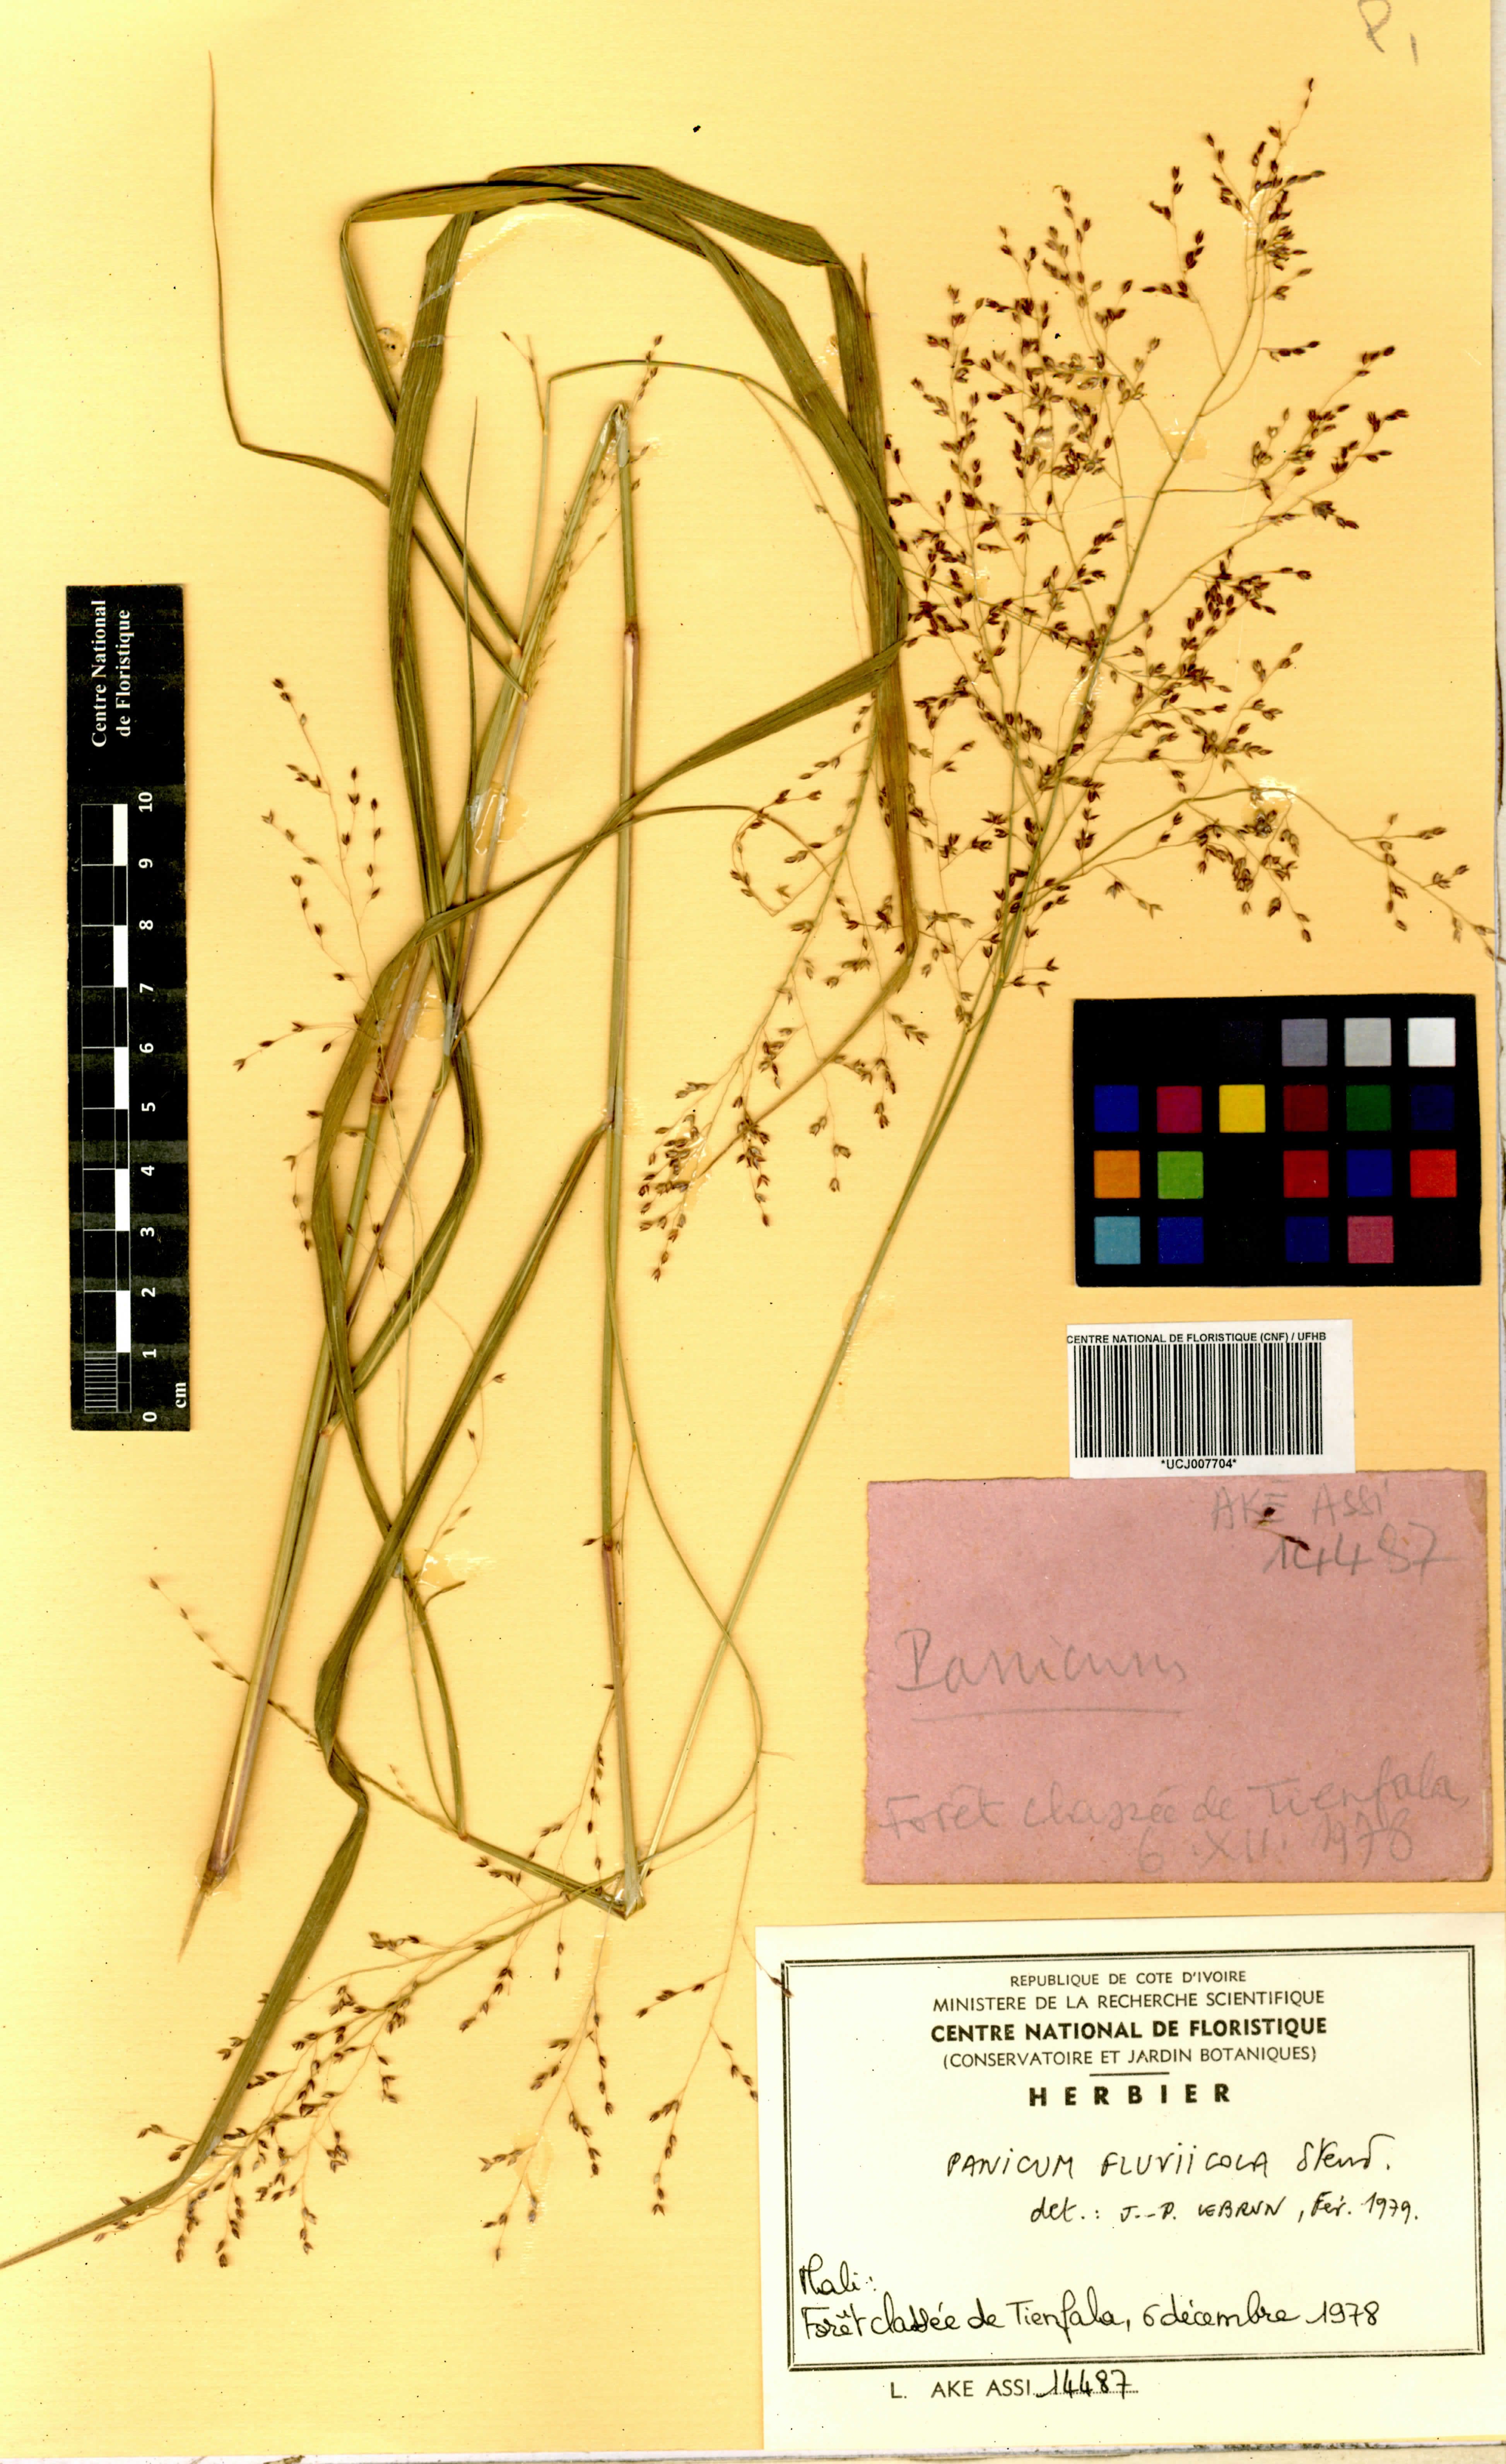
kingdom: Plantae
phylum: Tracheophyta
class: Liliopsida
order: Poales
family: Poaceae
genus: Panicum
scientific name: Panicum fluviicola
